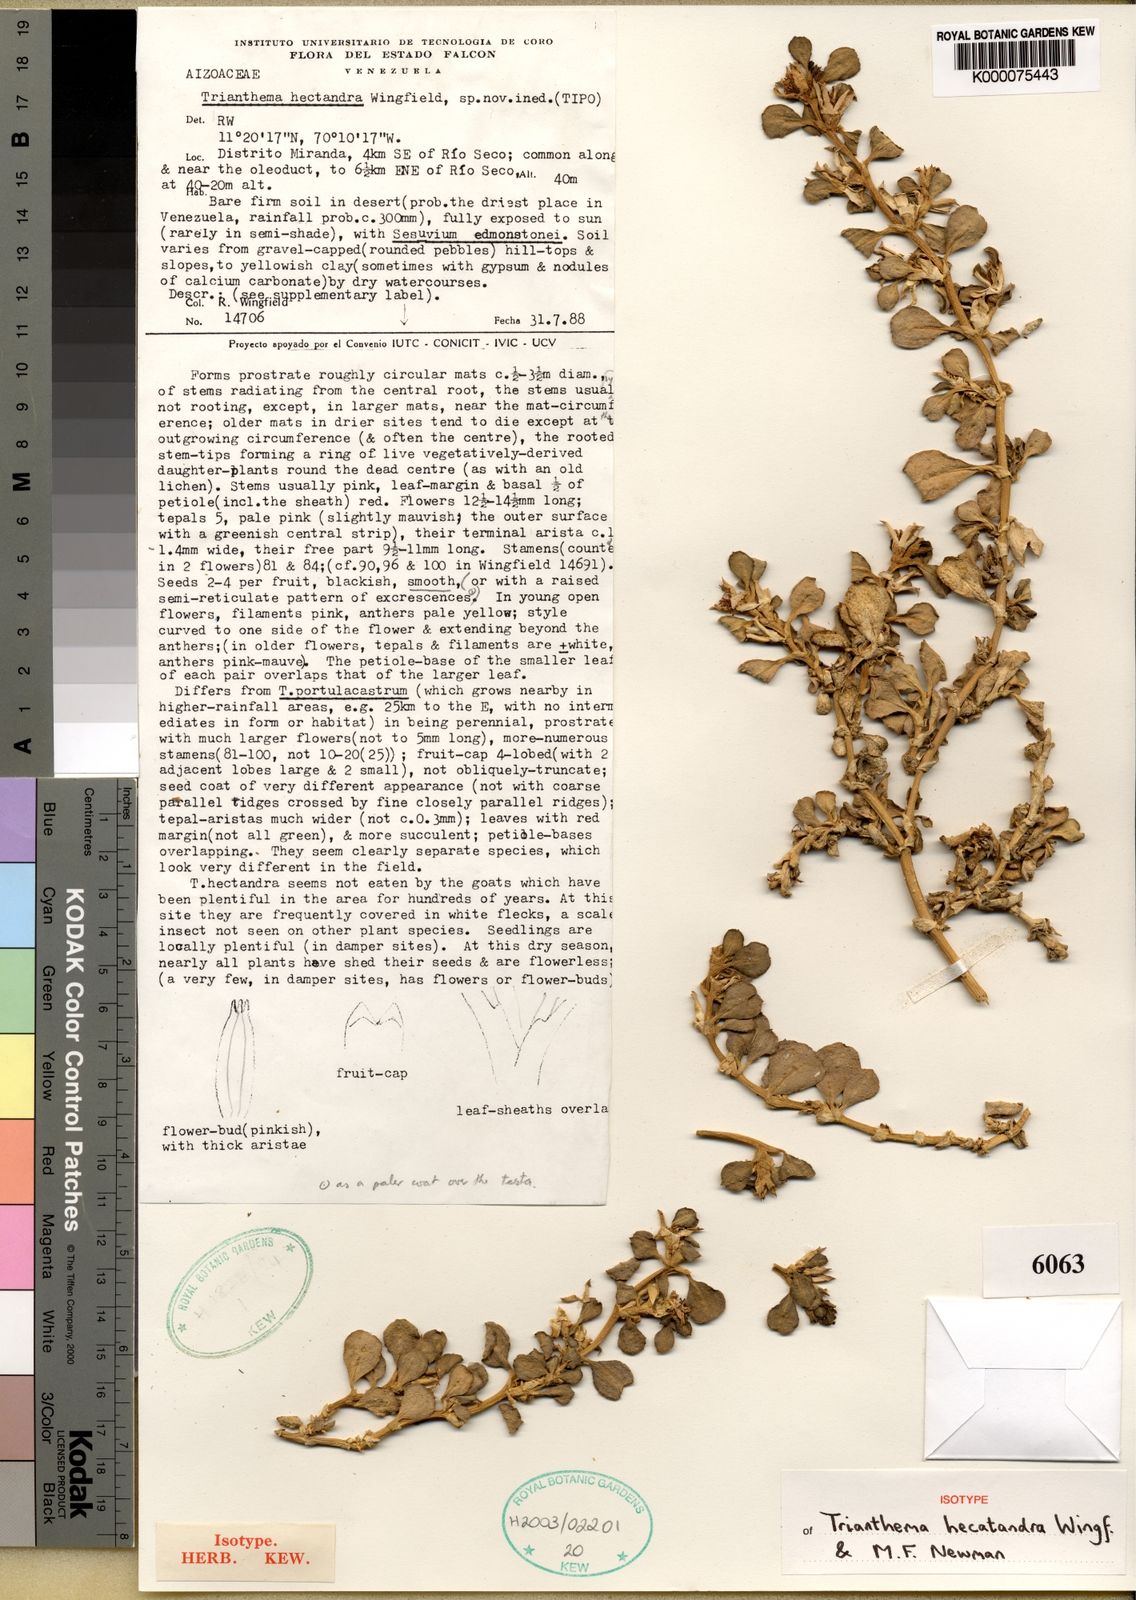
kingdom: Plantae
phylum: Tracheophyta
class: Magnoliopsida
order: Caryophyllales
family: Aizoaceae
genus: Trianthema
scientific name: Trianthema hecatandrum
